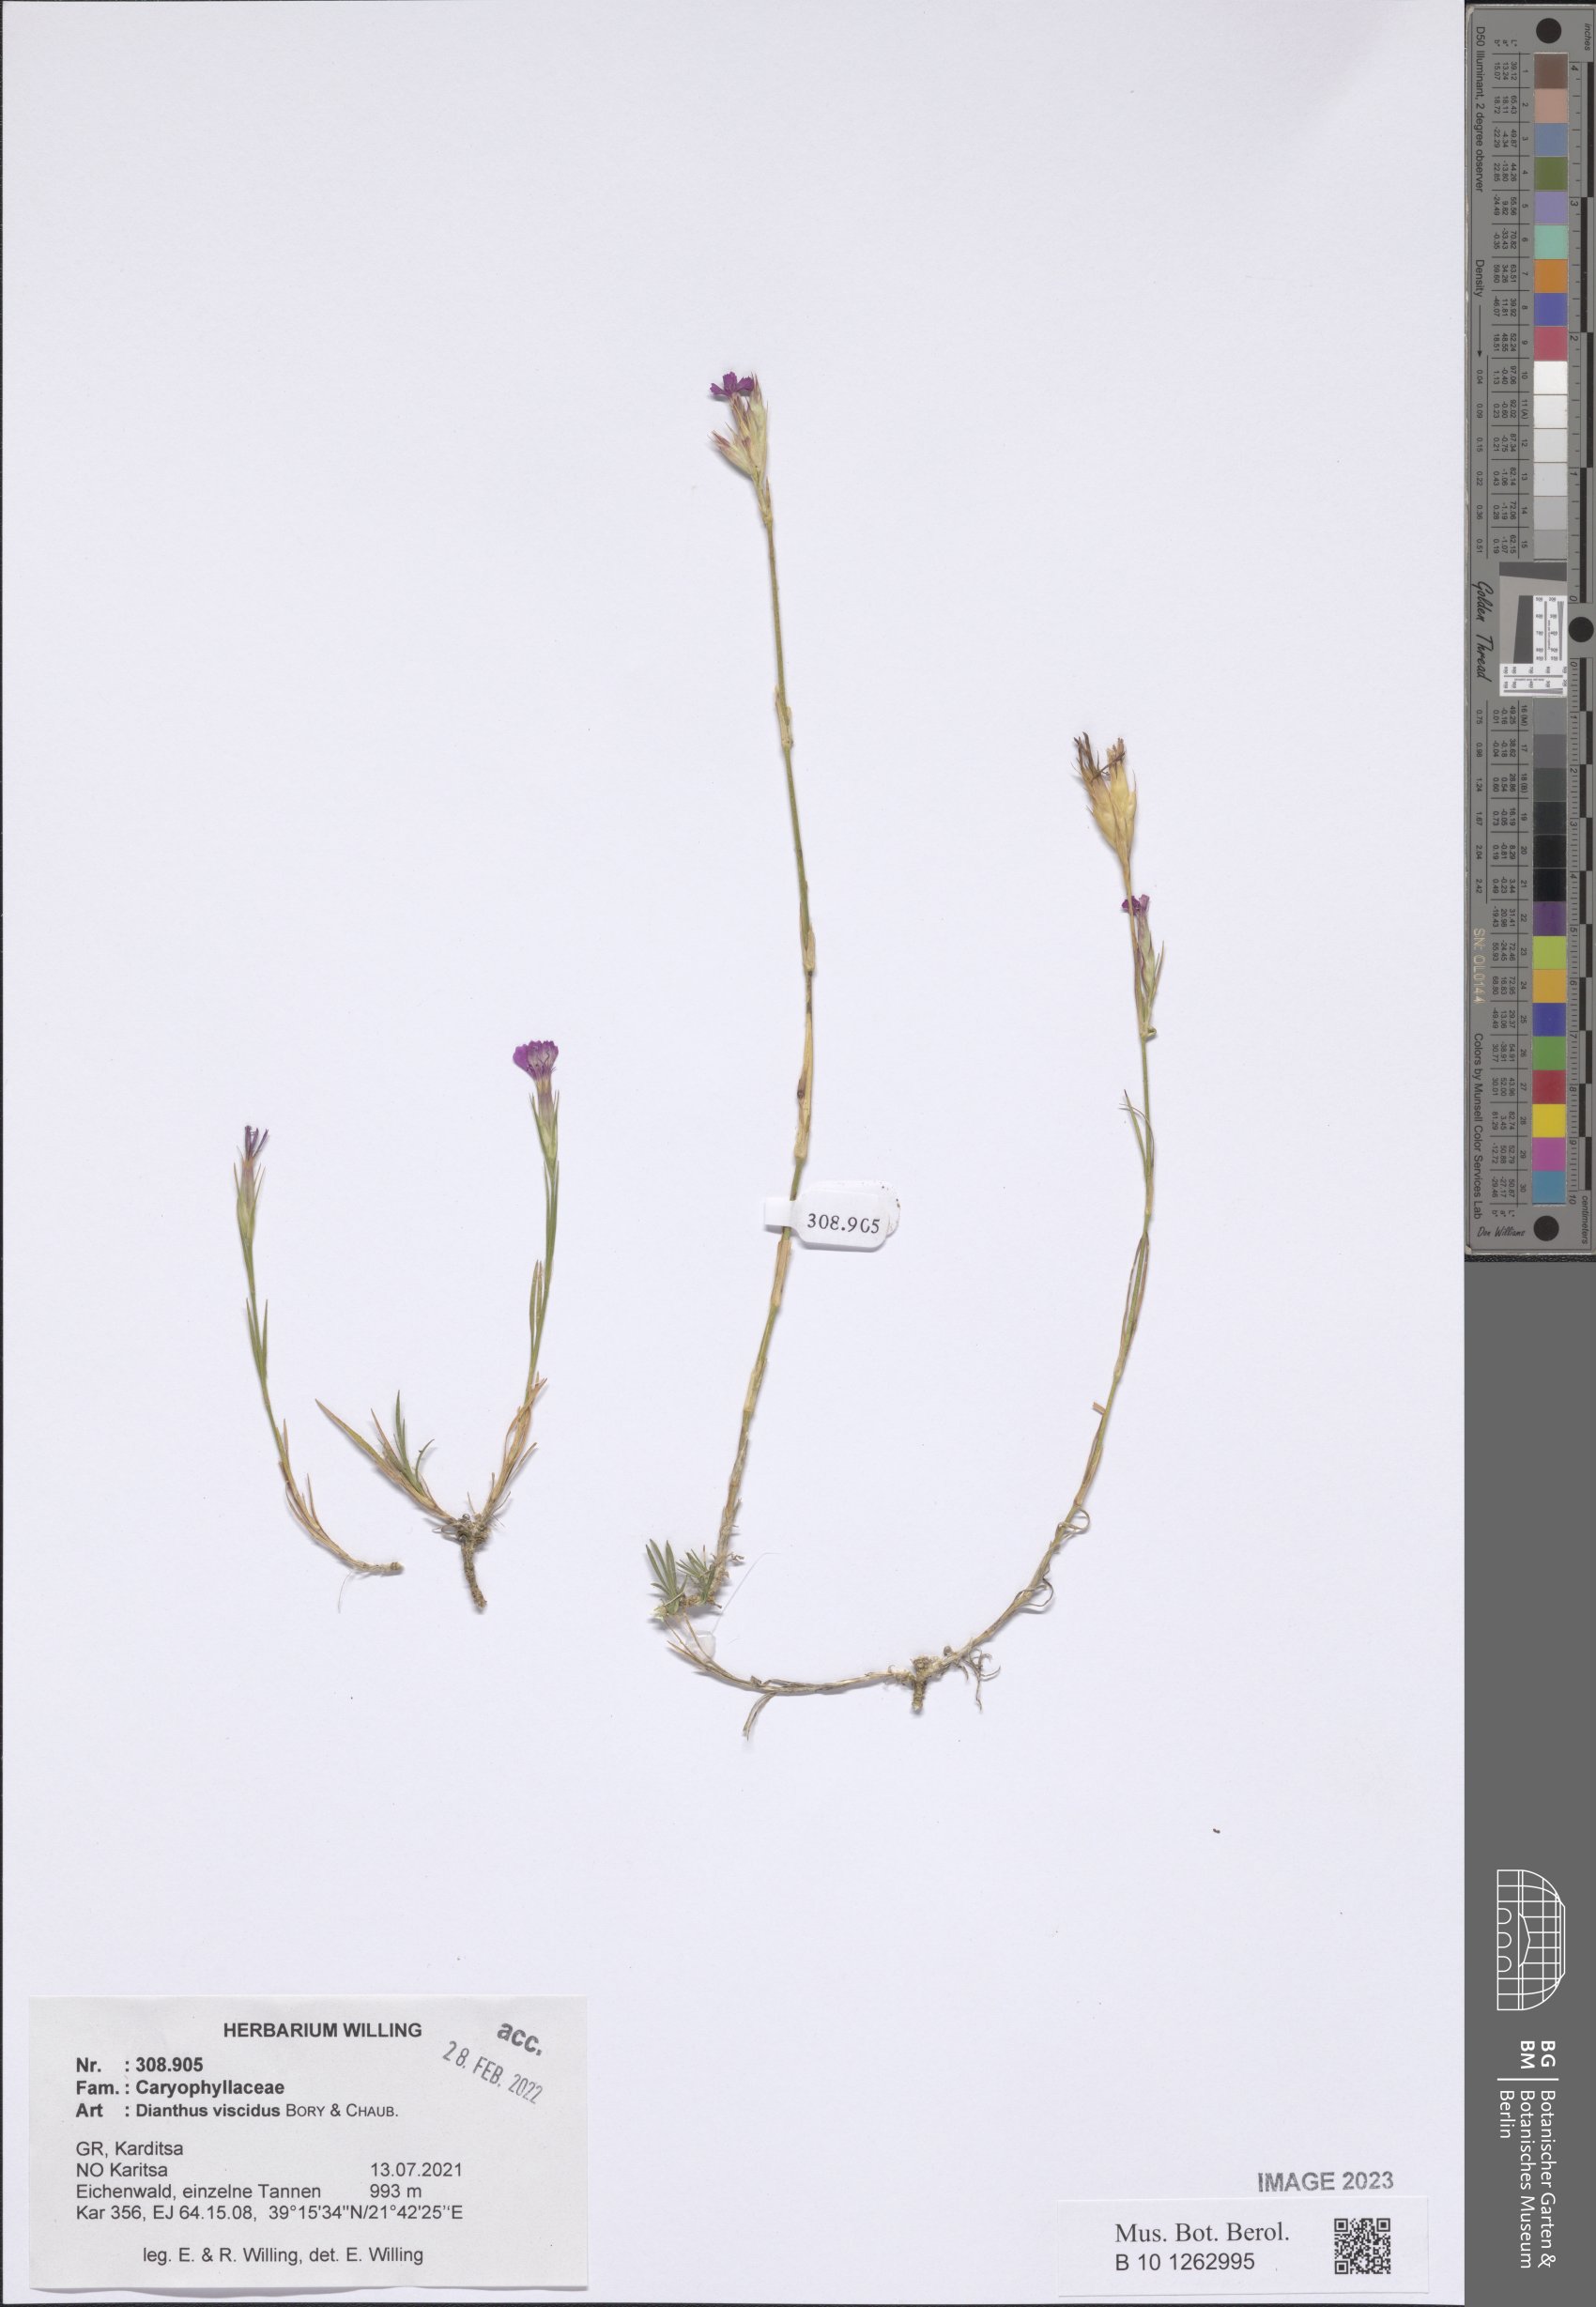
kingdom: Plantae
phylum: Tracheophyta
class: Magnoliopsida
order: Caryophyllales
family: Caryophyllaceae
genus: Dianthus
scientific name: Dianthus viscidus
